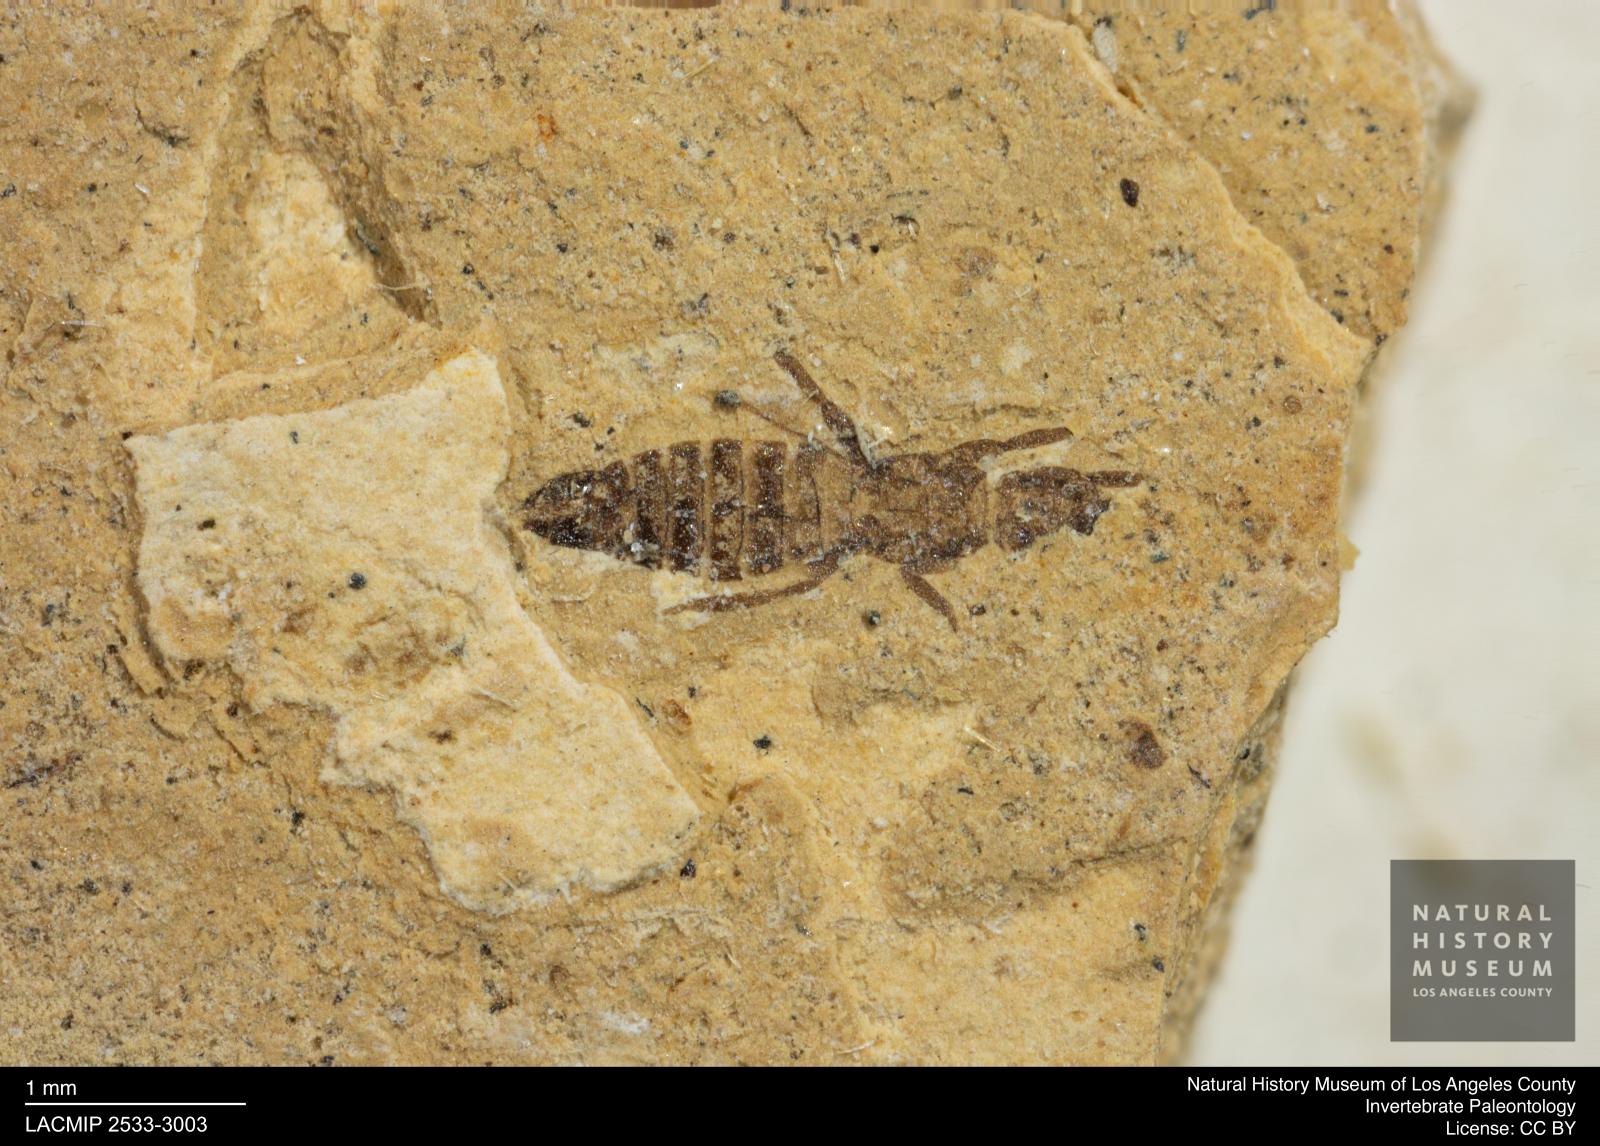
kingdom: Animalia
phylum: Arthropoda
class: Insecta
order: Thysanoptera
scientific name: Thysanoptera
